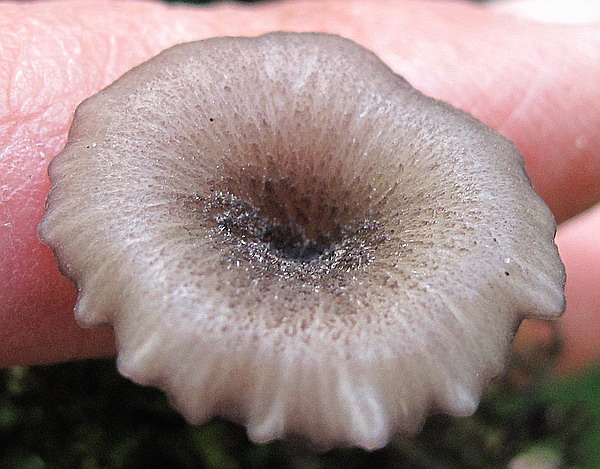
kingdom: Fungi
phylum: Basidiomycota
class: Agaricomycetes
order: Agaricales
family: Entolomataceae
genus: Entoloma
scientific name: Entoloma incarnatofuscescens
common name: tragt-rødblad
